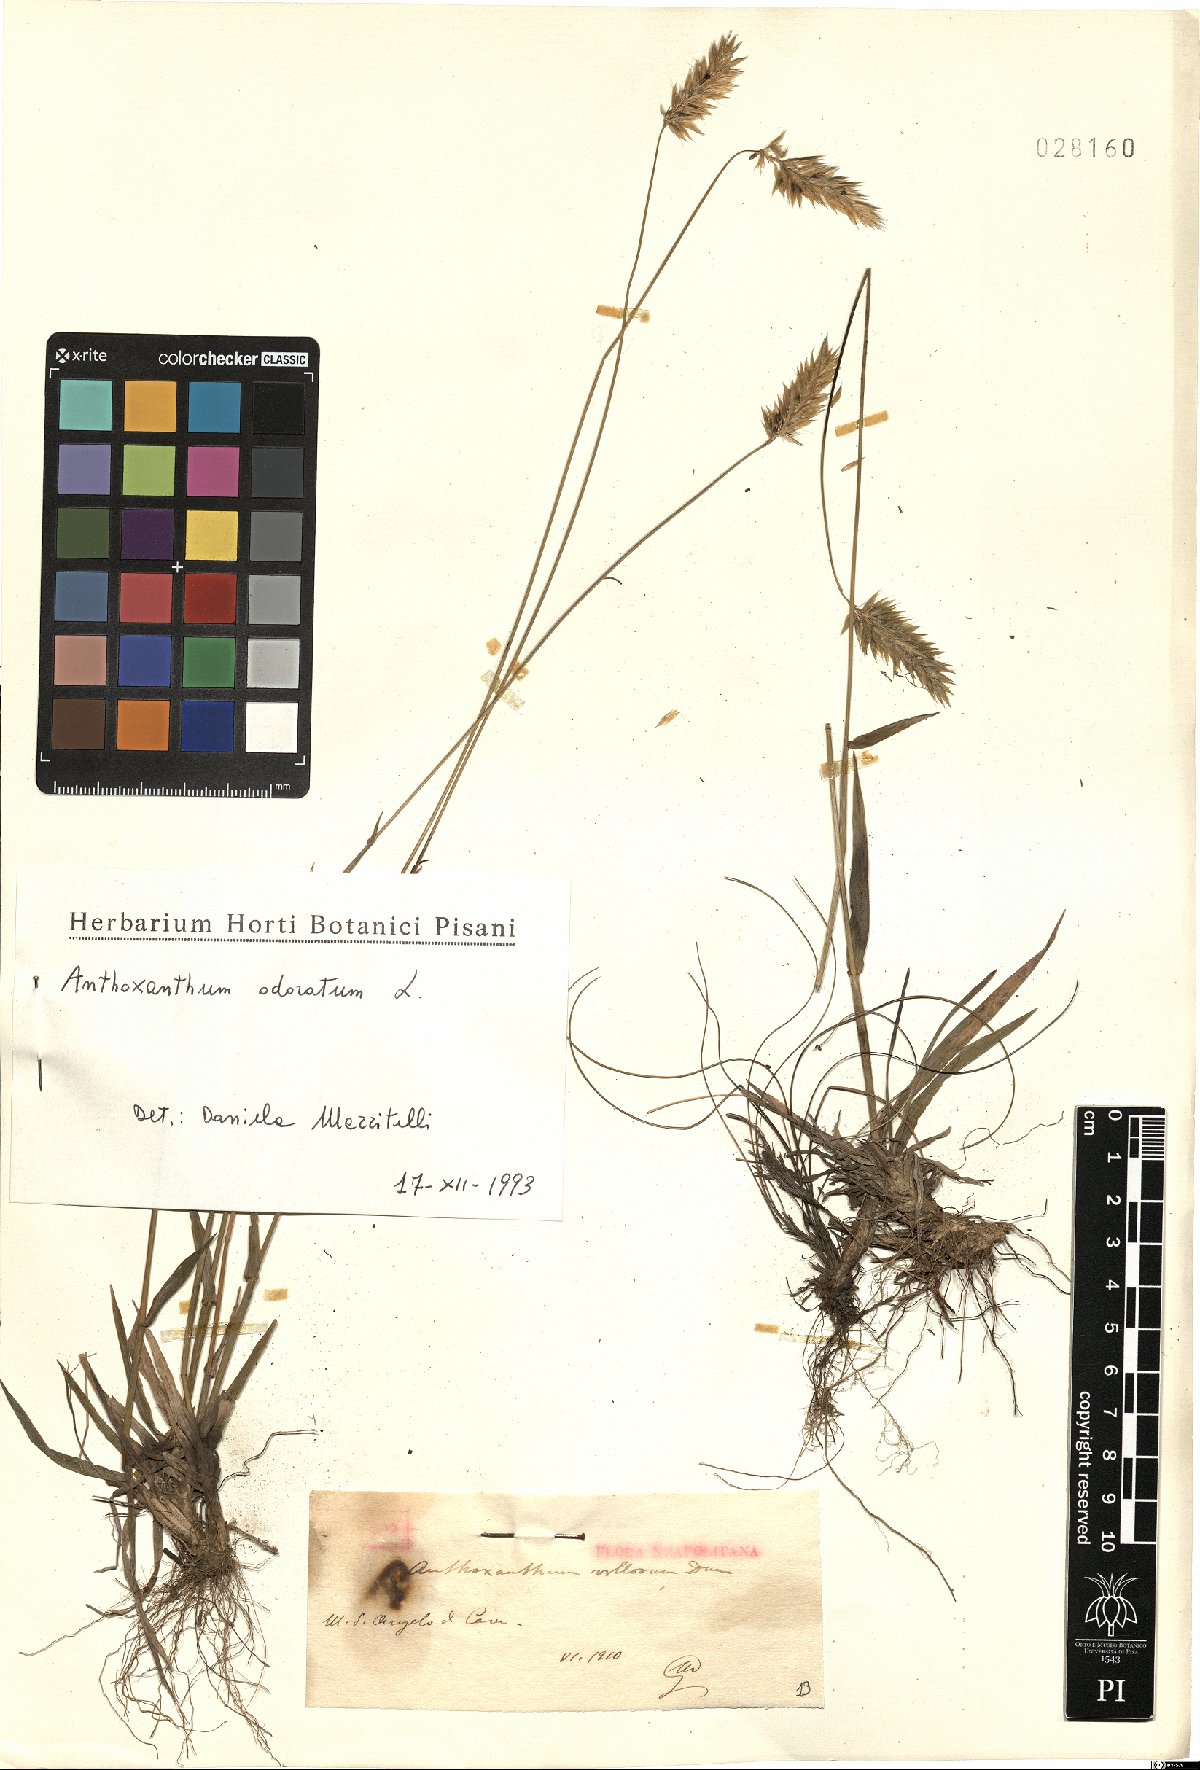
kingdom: Plantae
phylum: Tracheophyta
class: Liliopsida
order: Poales
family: Poaceae
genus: Anthoxanthum
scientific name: Anthoxanthum odoratum
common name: Sweet vernalgrass
